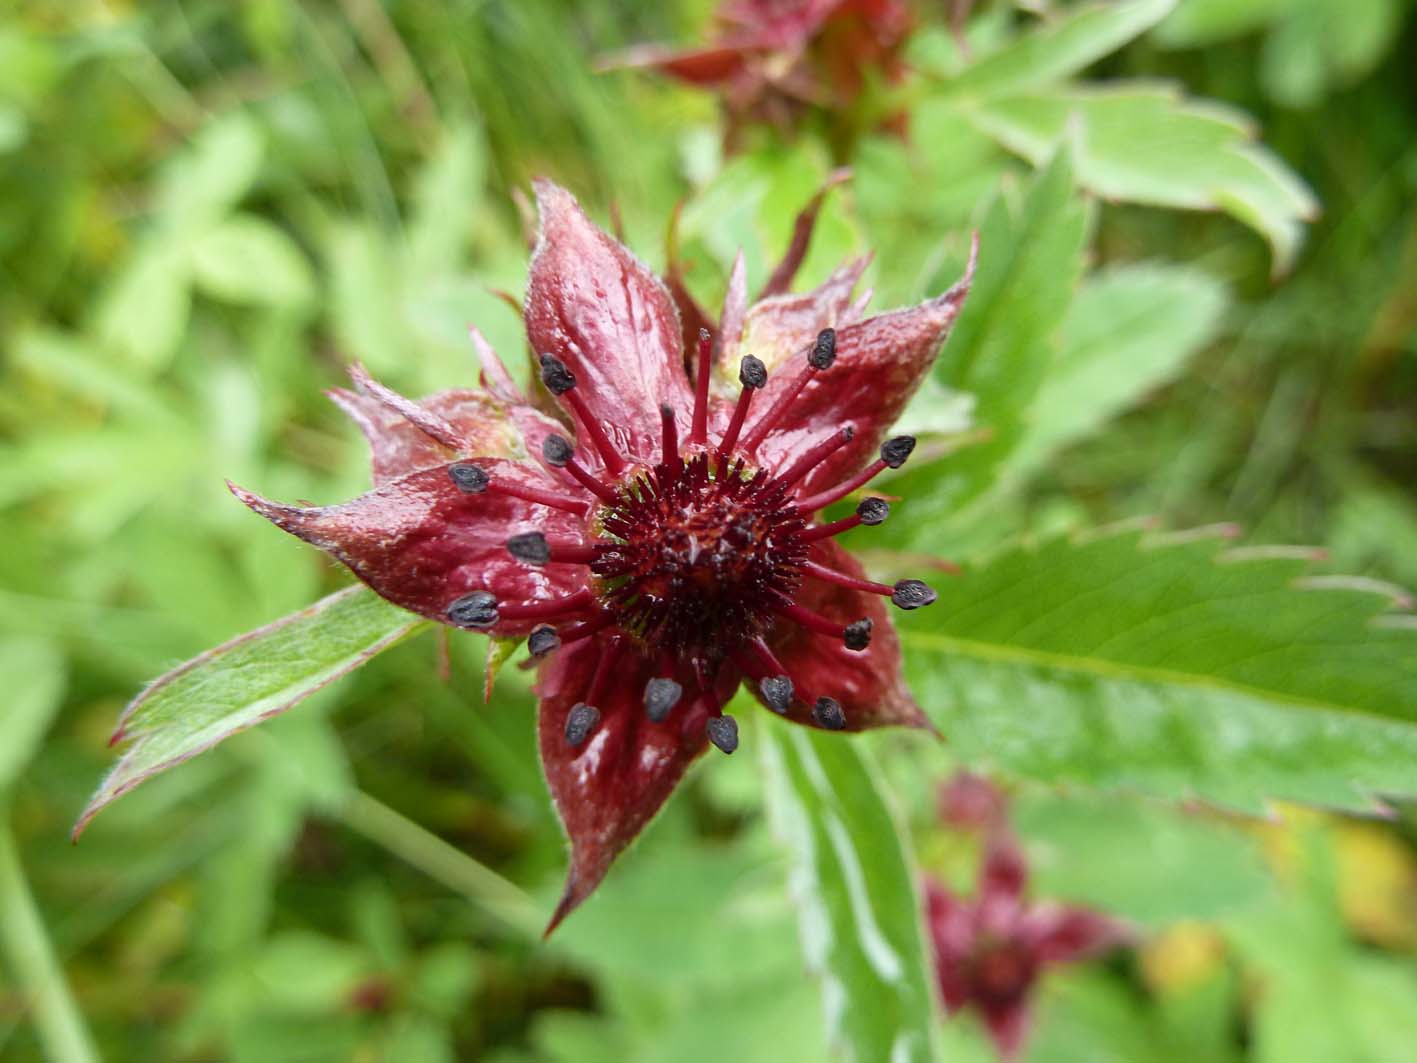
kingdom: Plantae
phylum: Tracheophyta
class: Magnoliopsida
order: Rosales
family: Rosaceae
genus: Comarum
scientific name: Comarum palustre
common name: Marsh cinquefoil
